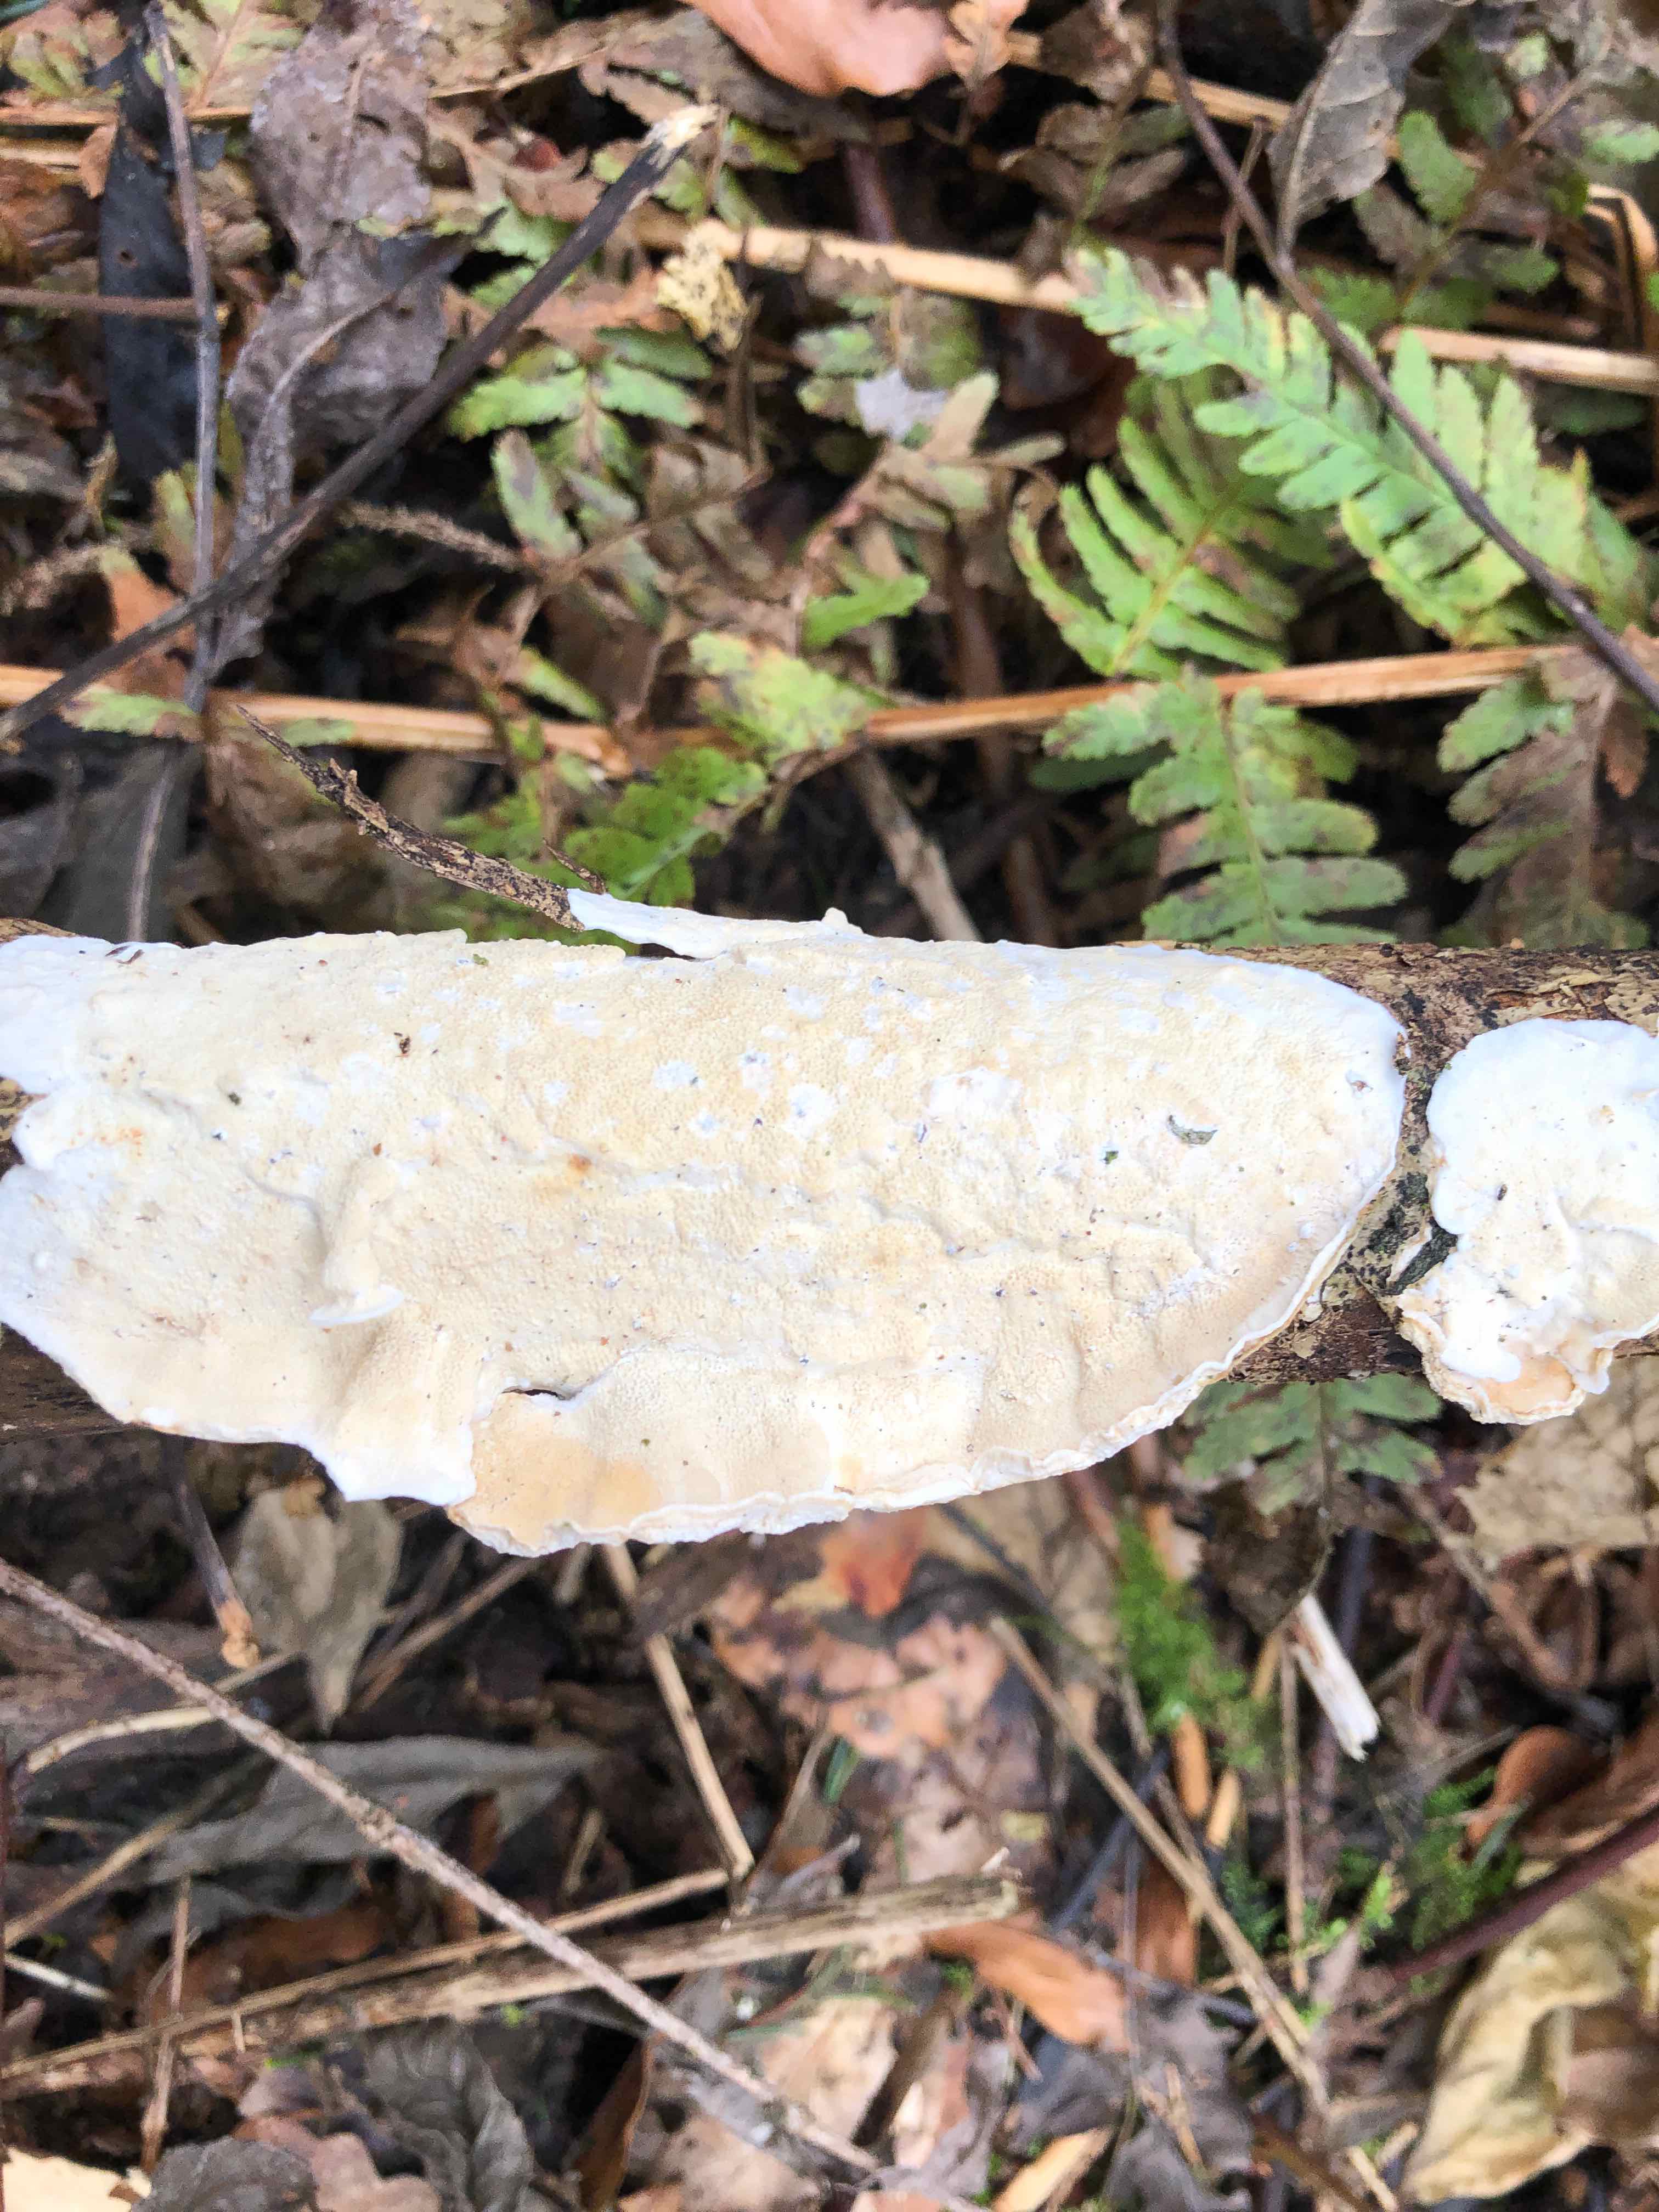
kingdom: Fungi
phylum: Basidiomycota
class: Agaricomycetes
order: Polyporales
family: Irpicaceae
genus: Byssomerulius
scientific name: Byssomerulius corium
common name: læder-åresvamp
